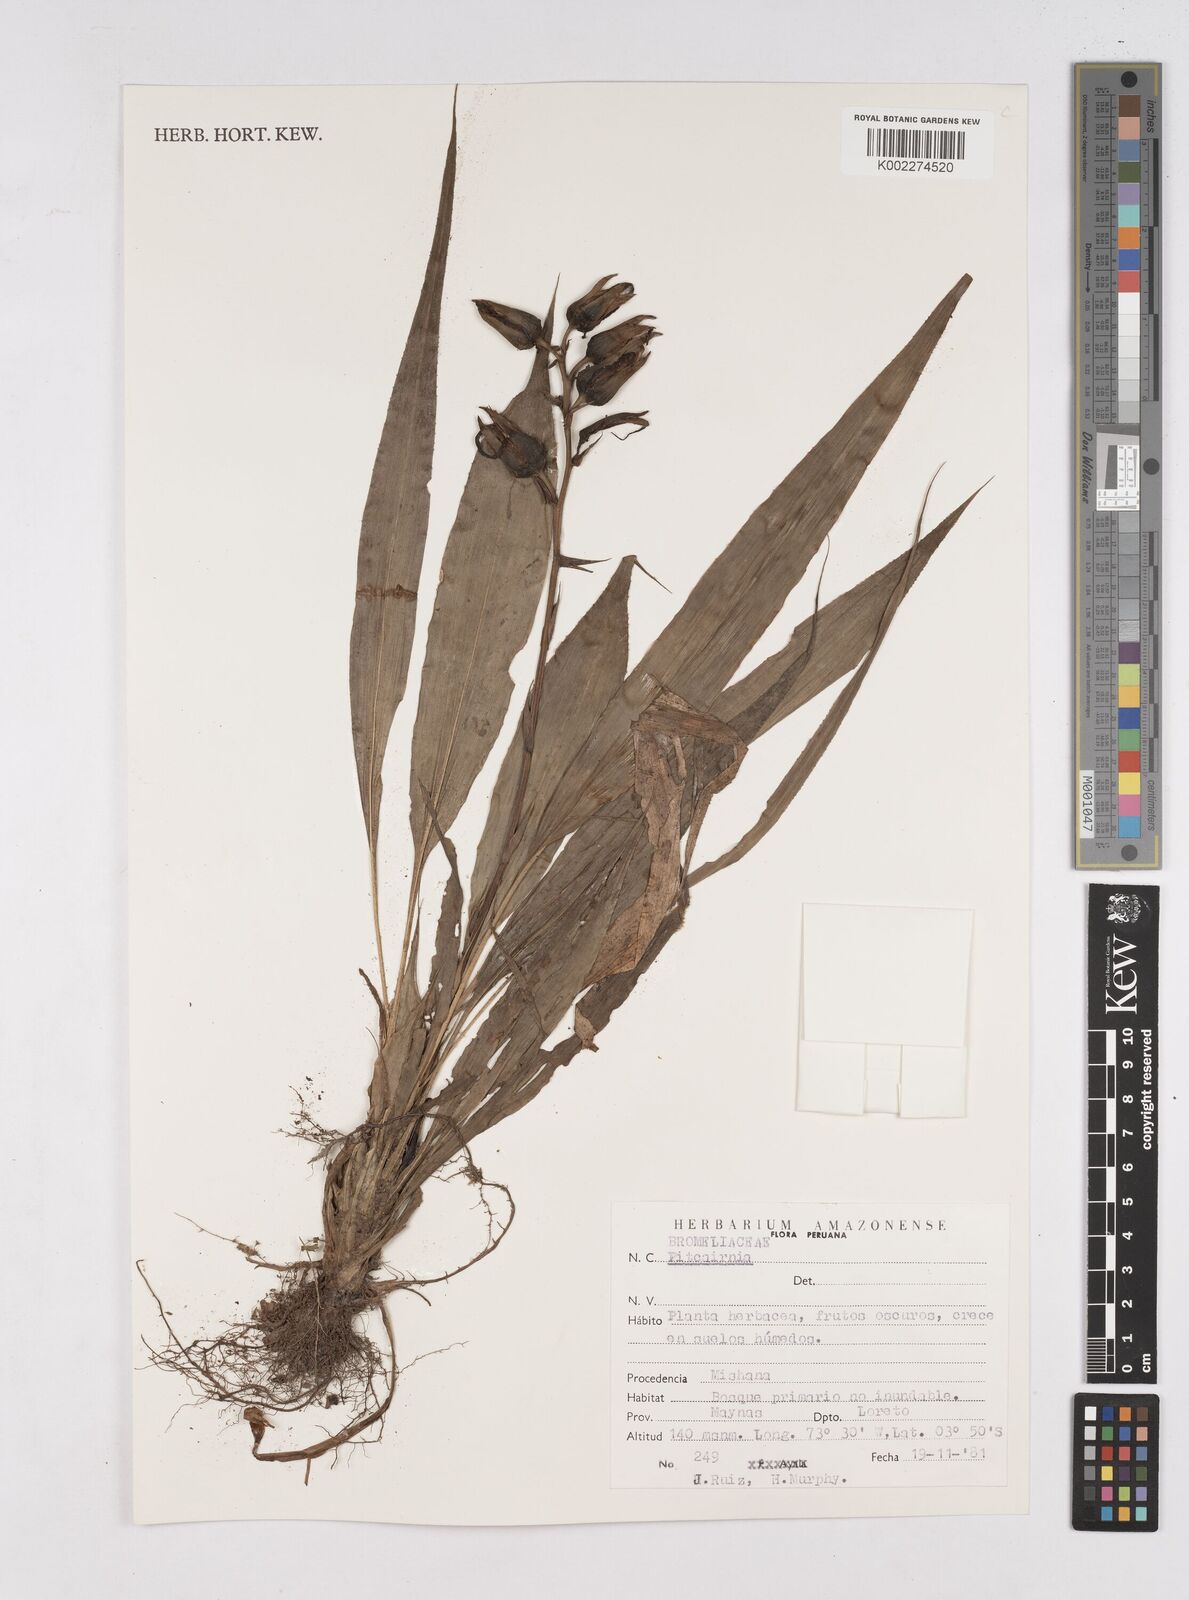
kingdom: Plantae
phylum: Tracheophyta
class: Liliopsida
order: Poales
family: Bromeliaceae
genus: Pitcairnia
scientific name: Pitcairnia
